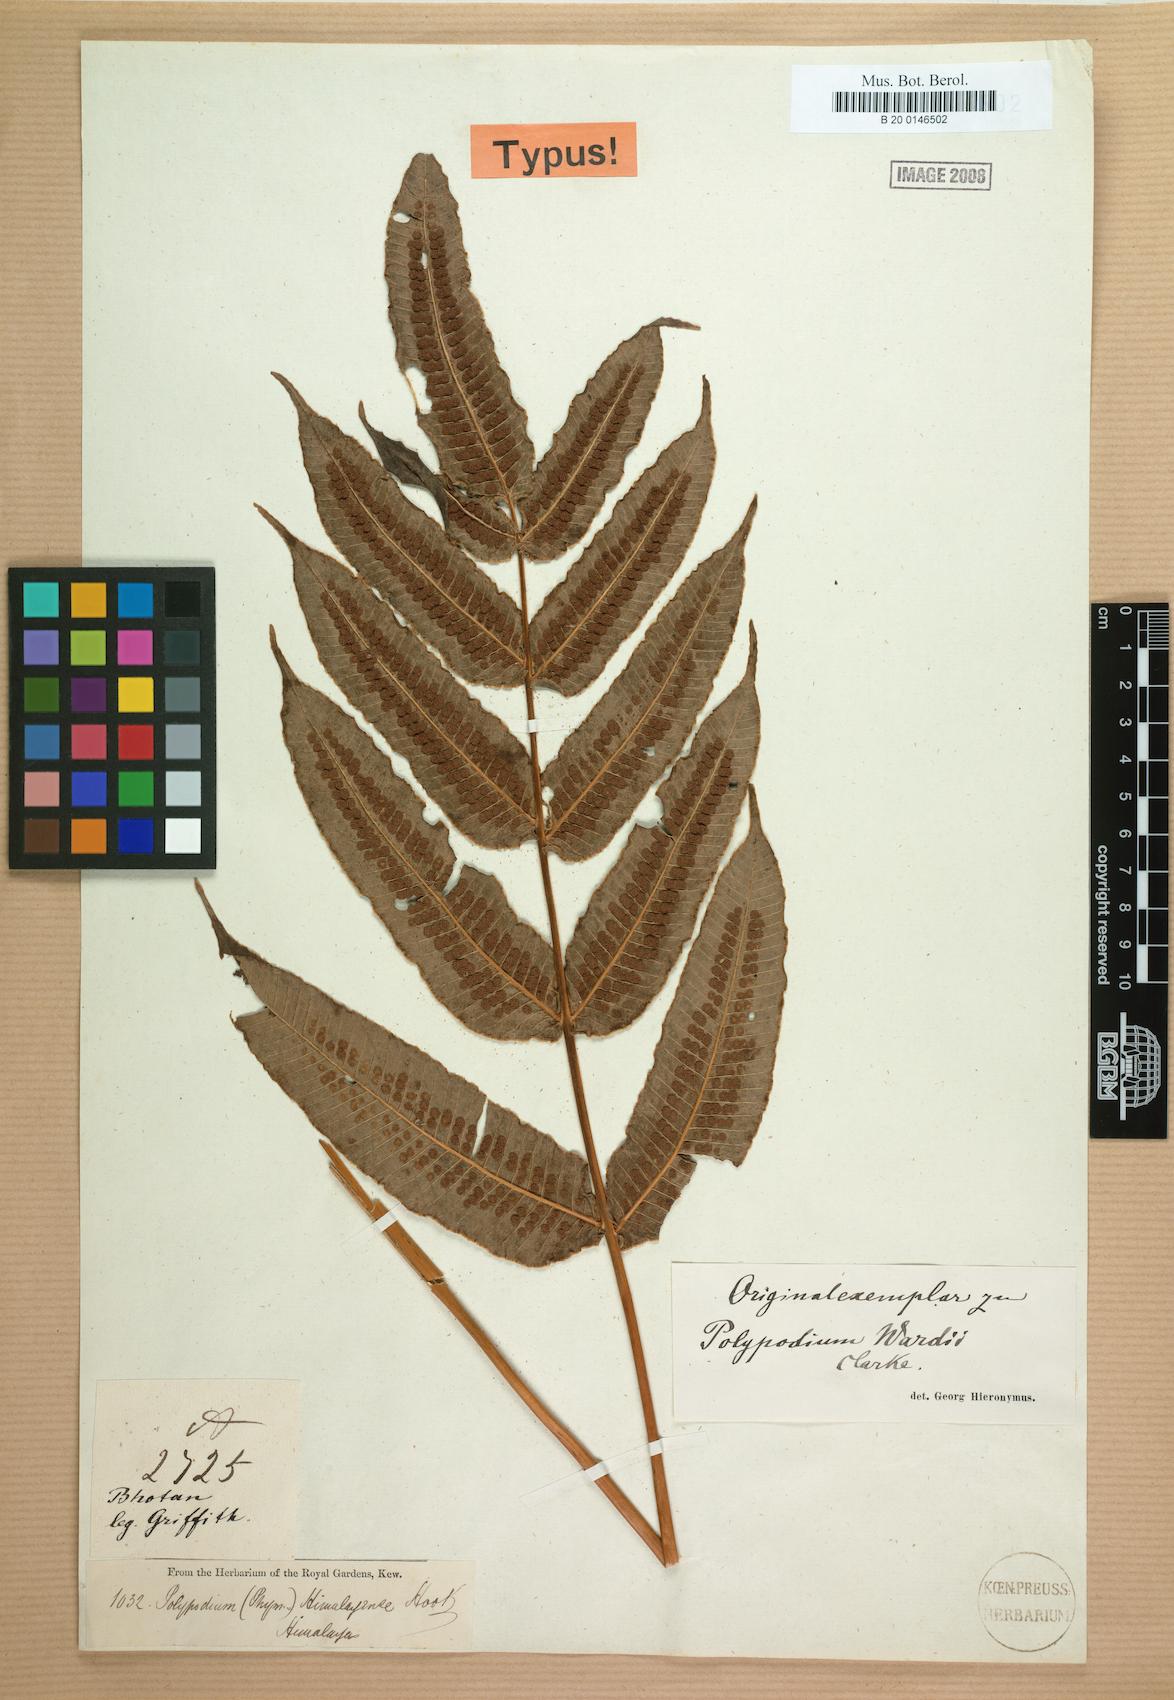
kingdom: Plantae
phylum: Tracheophyta
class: Polypodiopsida
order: Polypodiales
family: Polypodiaceae
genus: Selliguea
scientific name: Selliguea wardii
